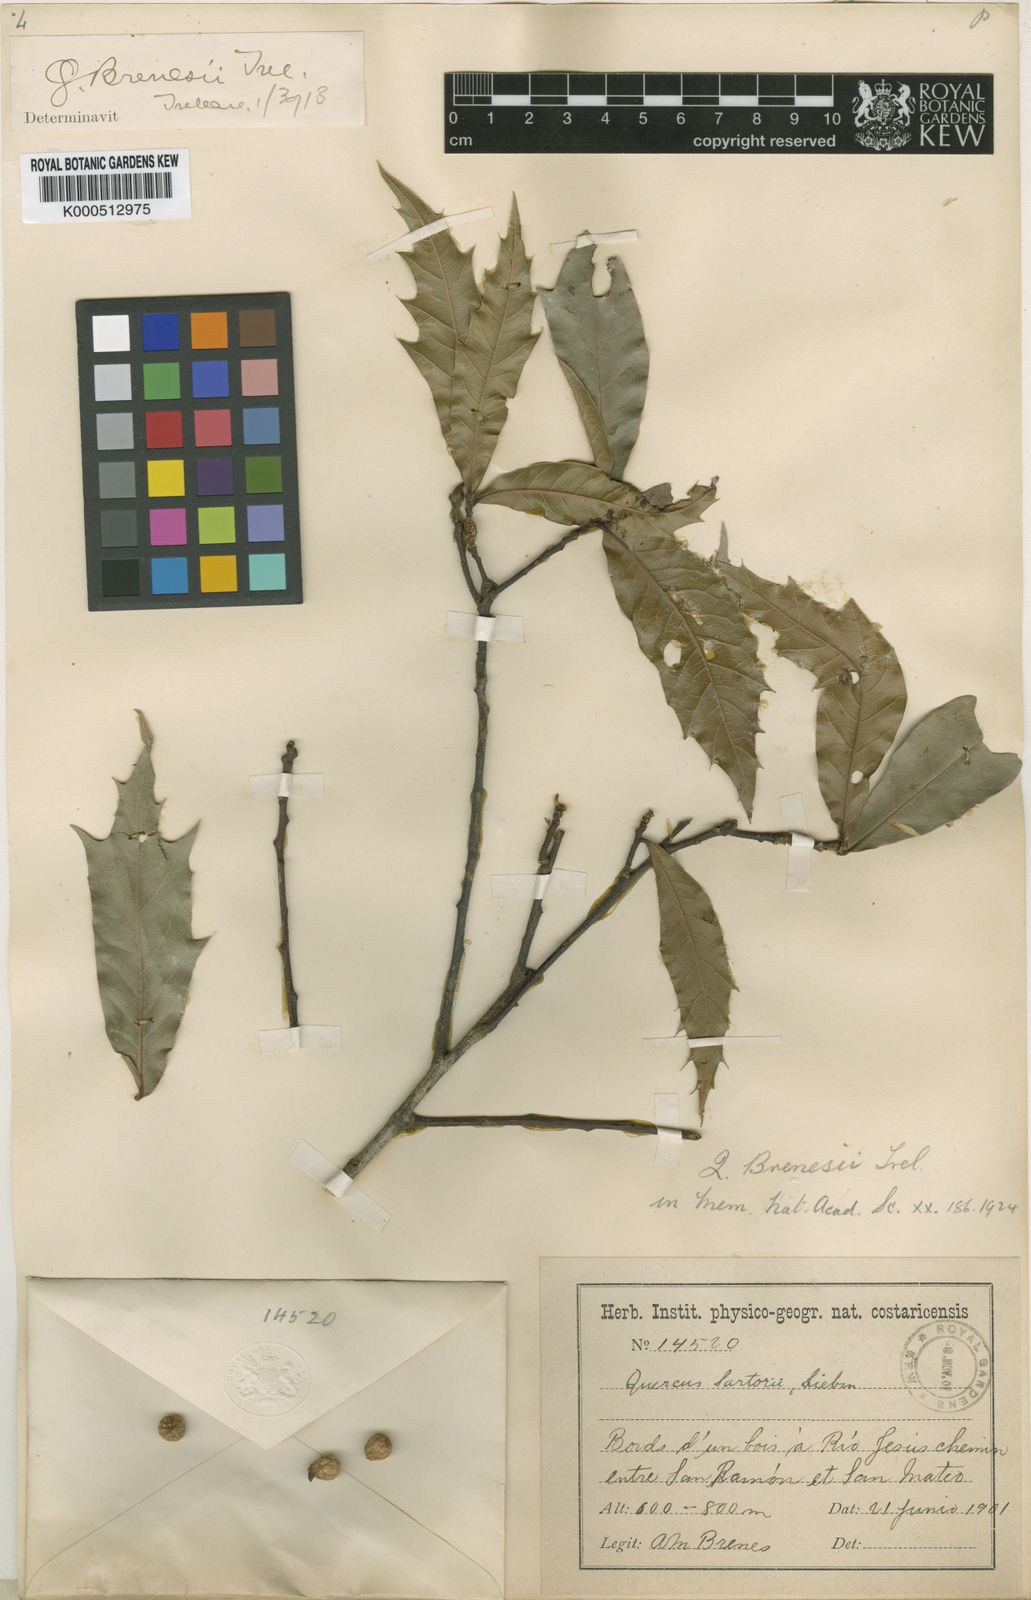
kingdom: Plantae
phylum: Tracheophyta
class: Magnoliopsida
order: Fagales
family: Fagaceae
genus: Quercus
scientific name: Quercus brenesii
